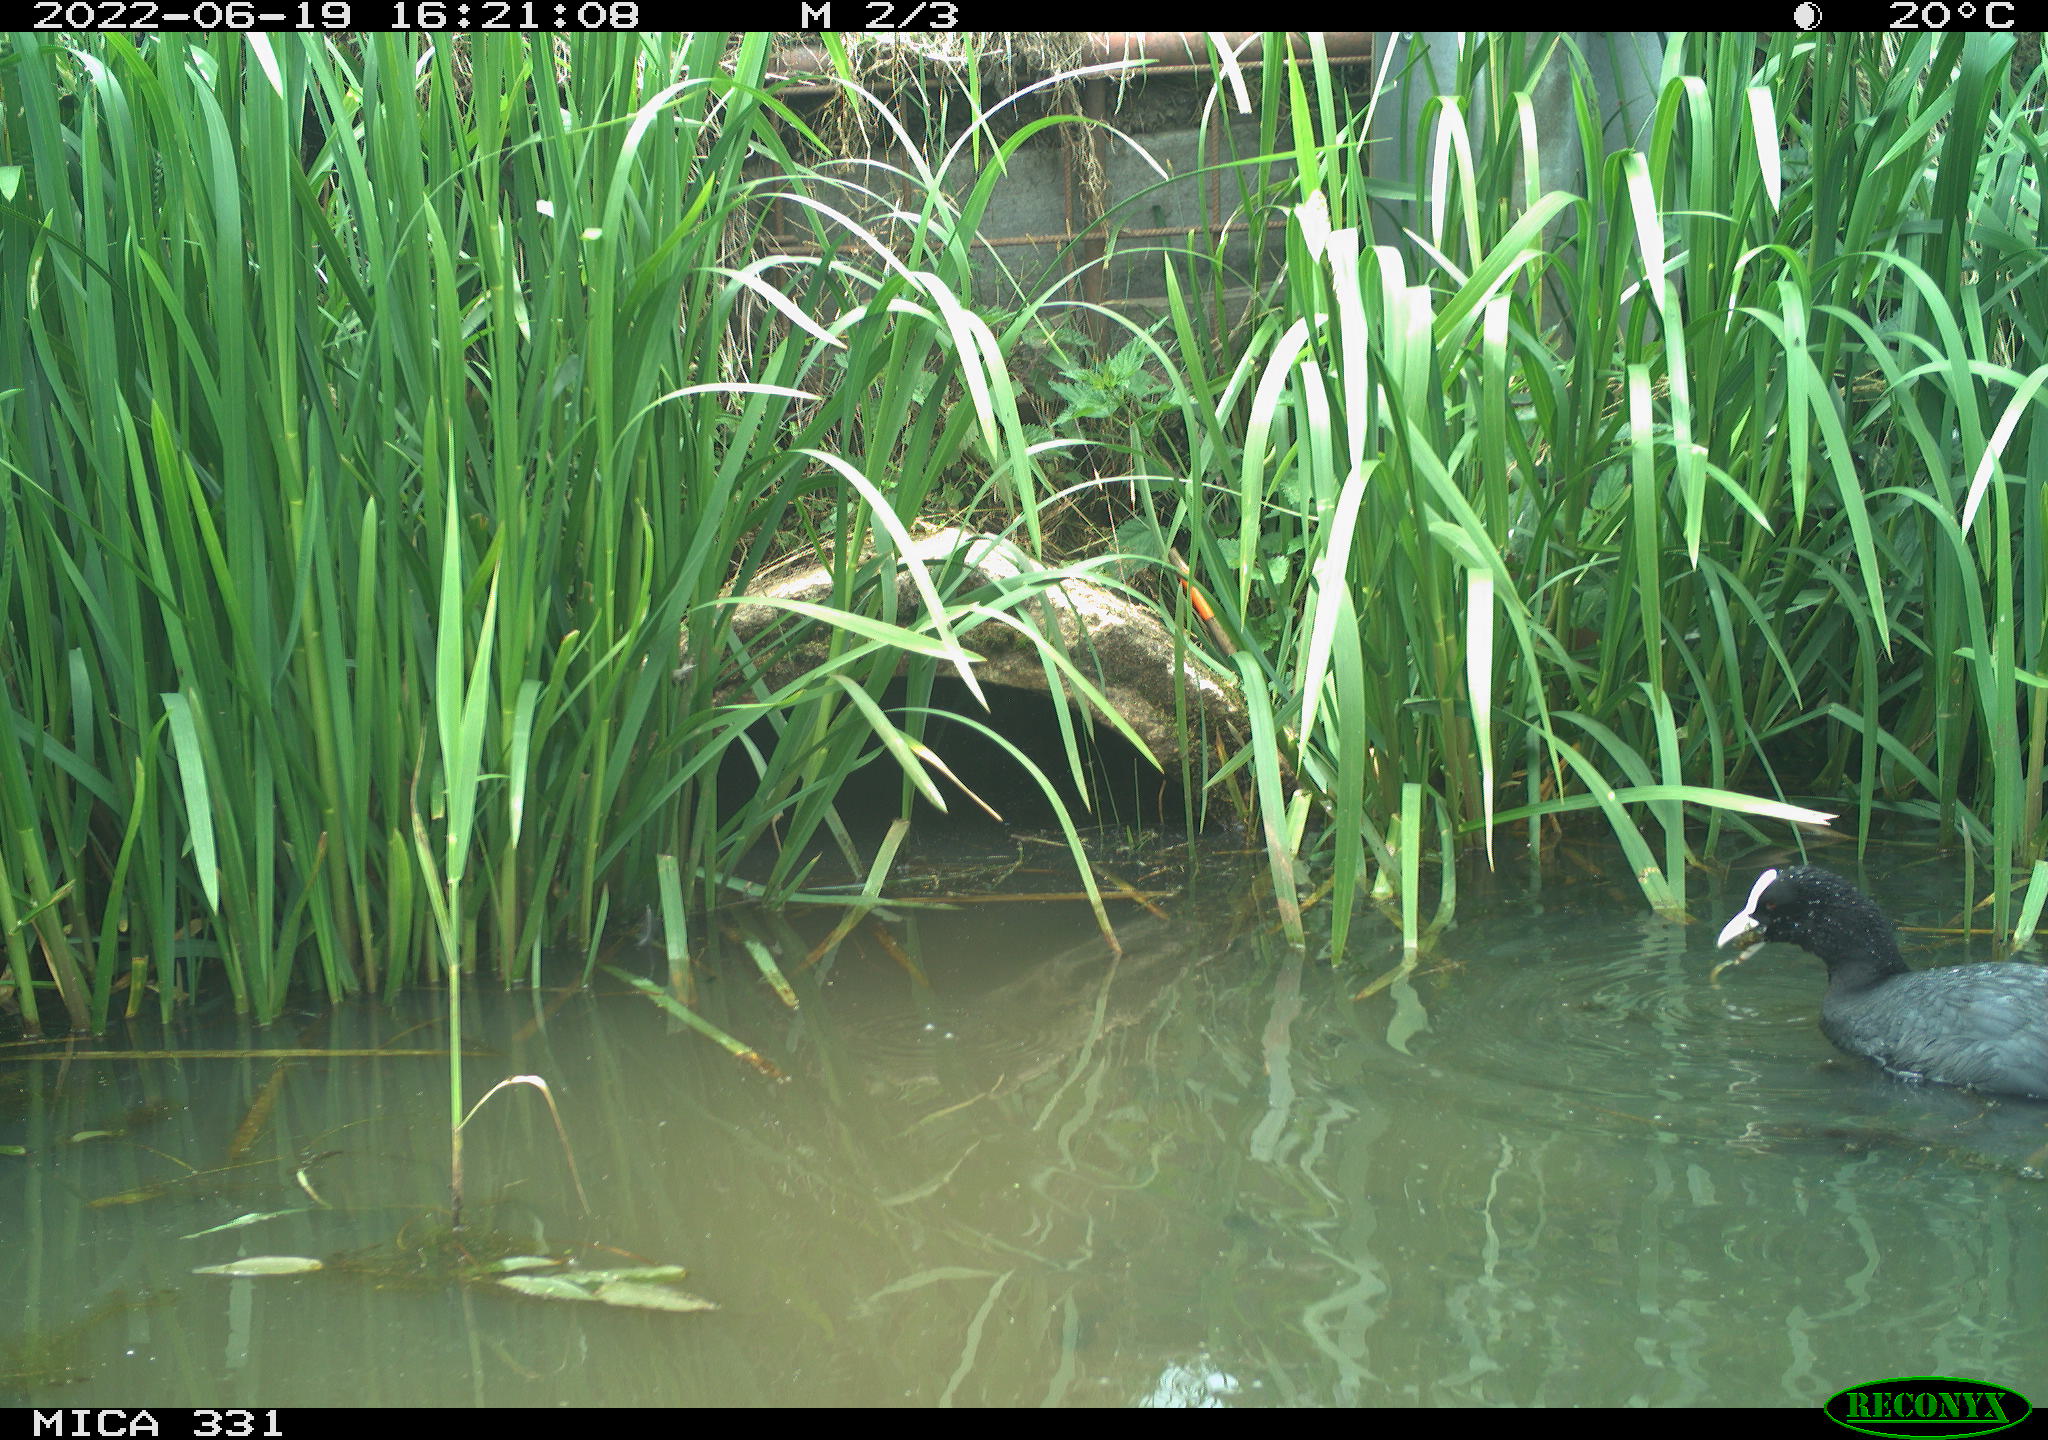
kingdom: Animalia
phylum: Chordata
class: Aves
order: Gruiformes
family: Rallidae
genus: Fulica
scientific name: Fulica atra
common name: Eurasian coot
